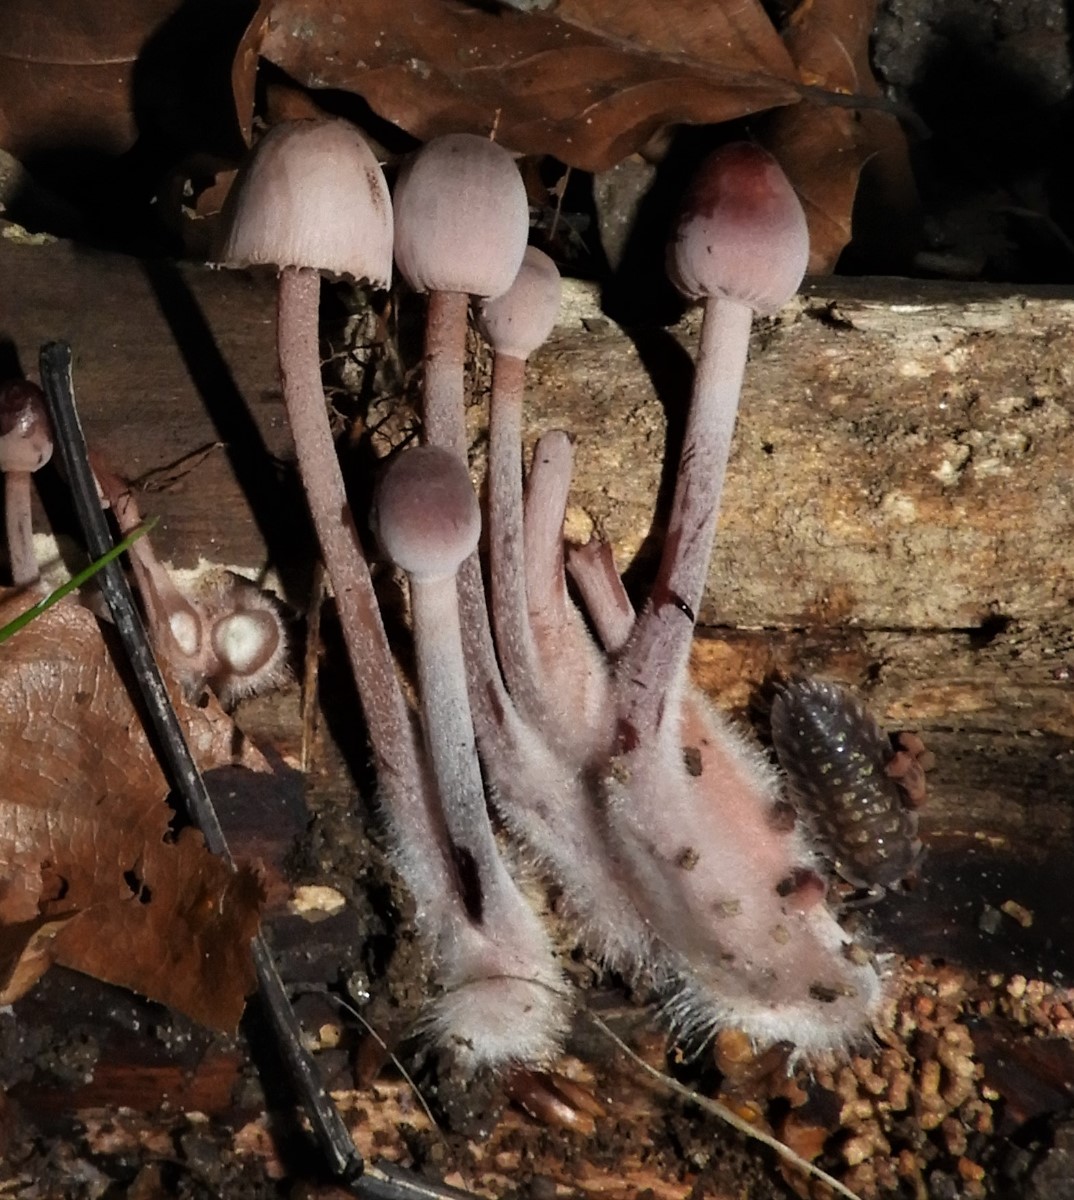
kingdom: Fungi
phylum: Basidiomycota
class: Agaricomycetes
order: Agaricales
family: Mycenaceae
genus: Mycena
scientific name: Mycena haematopus
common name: blødende huesvamp
